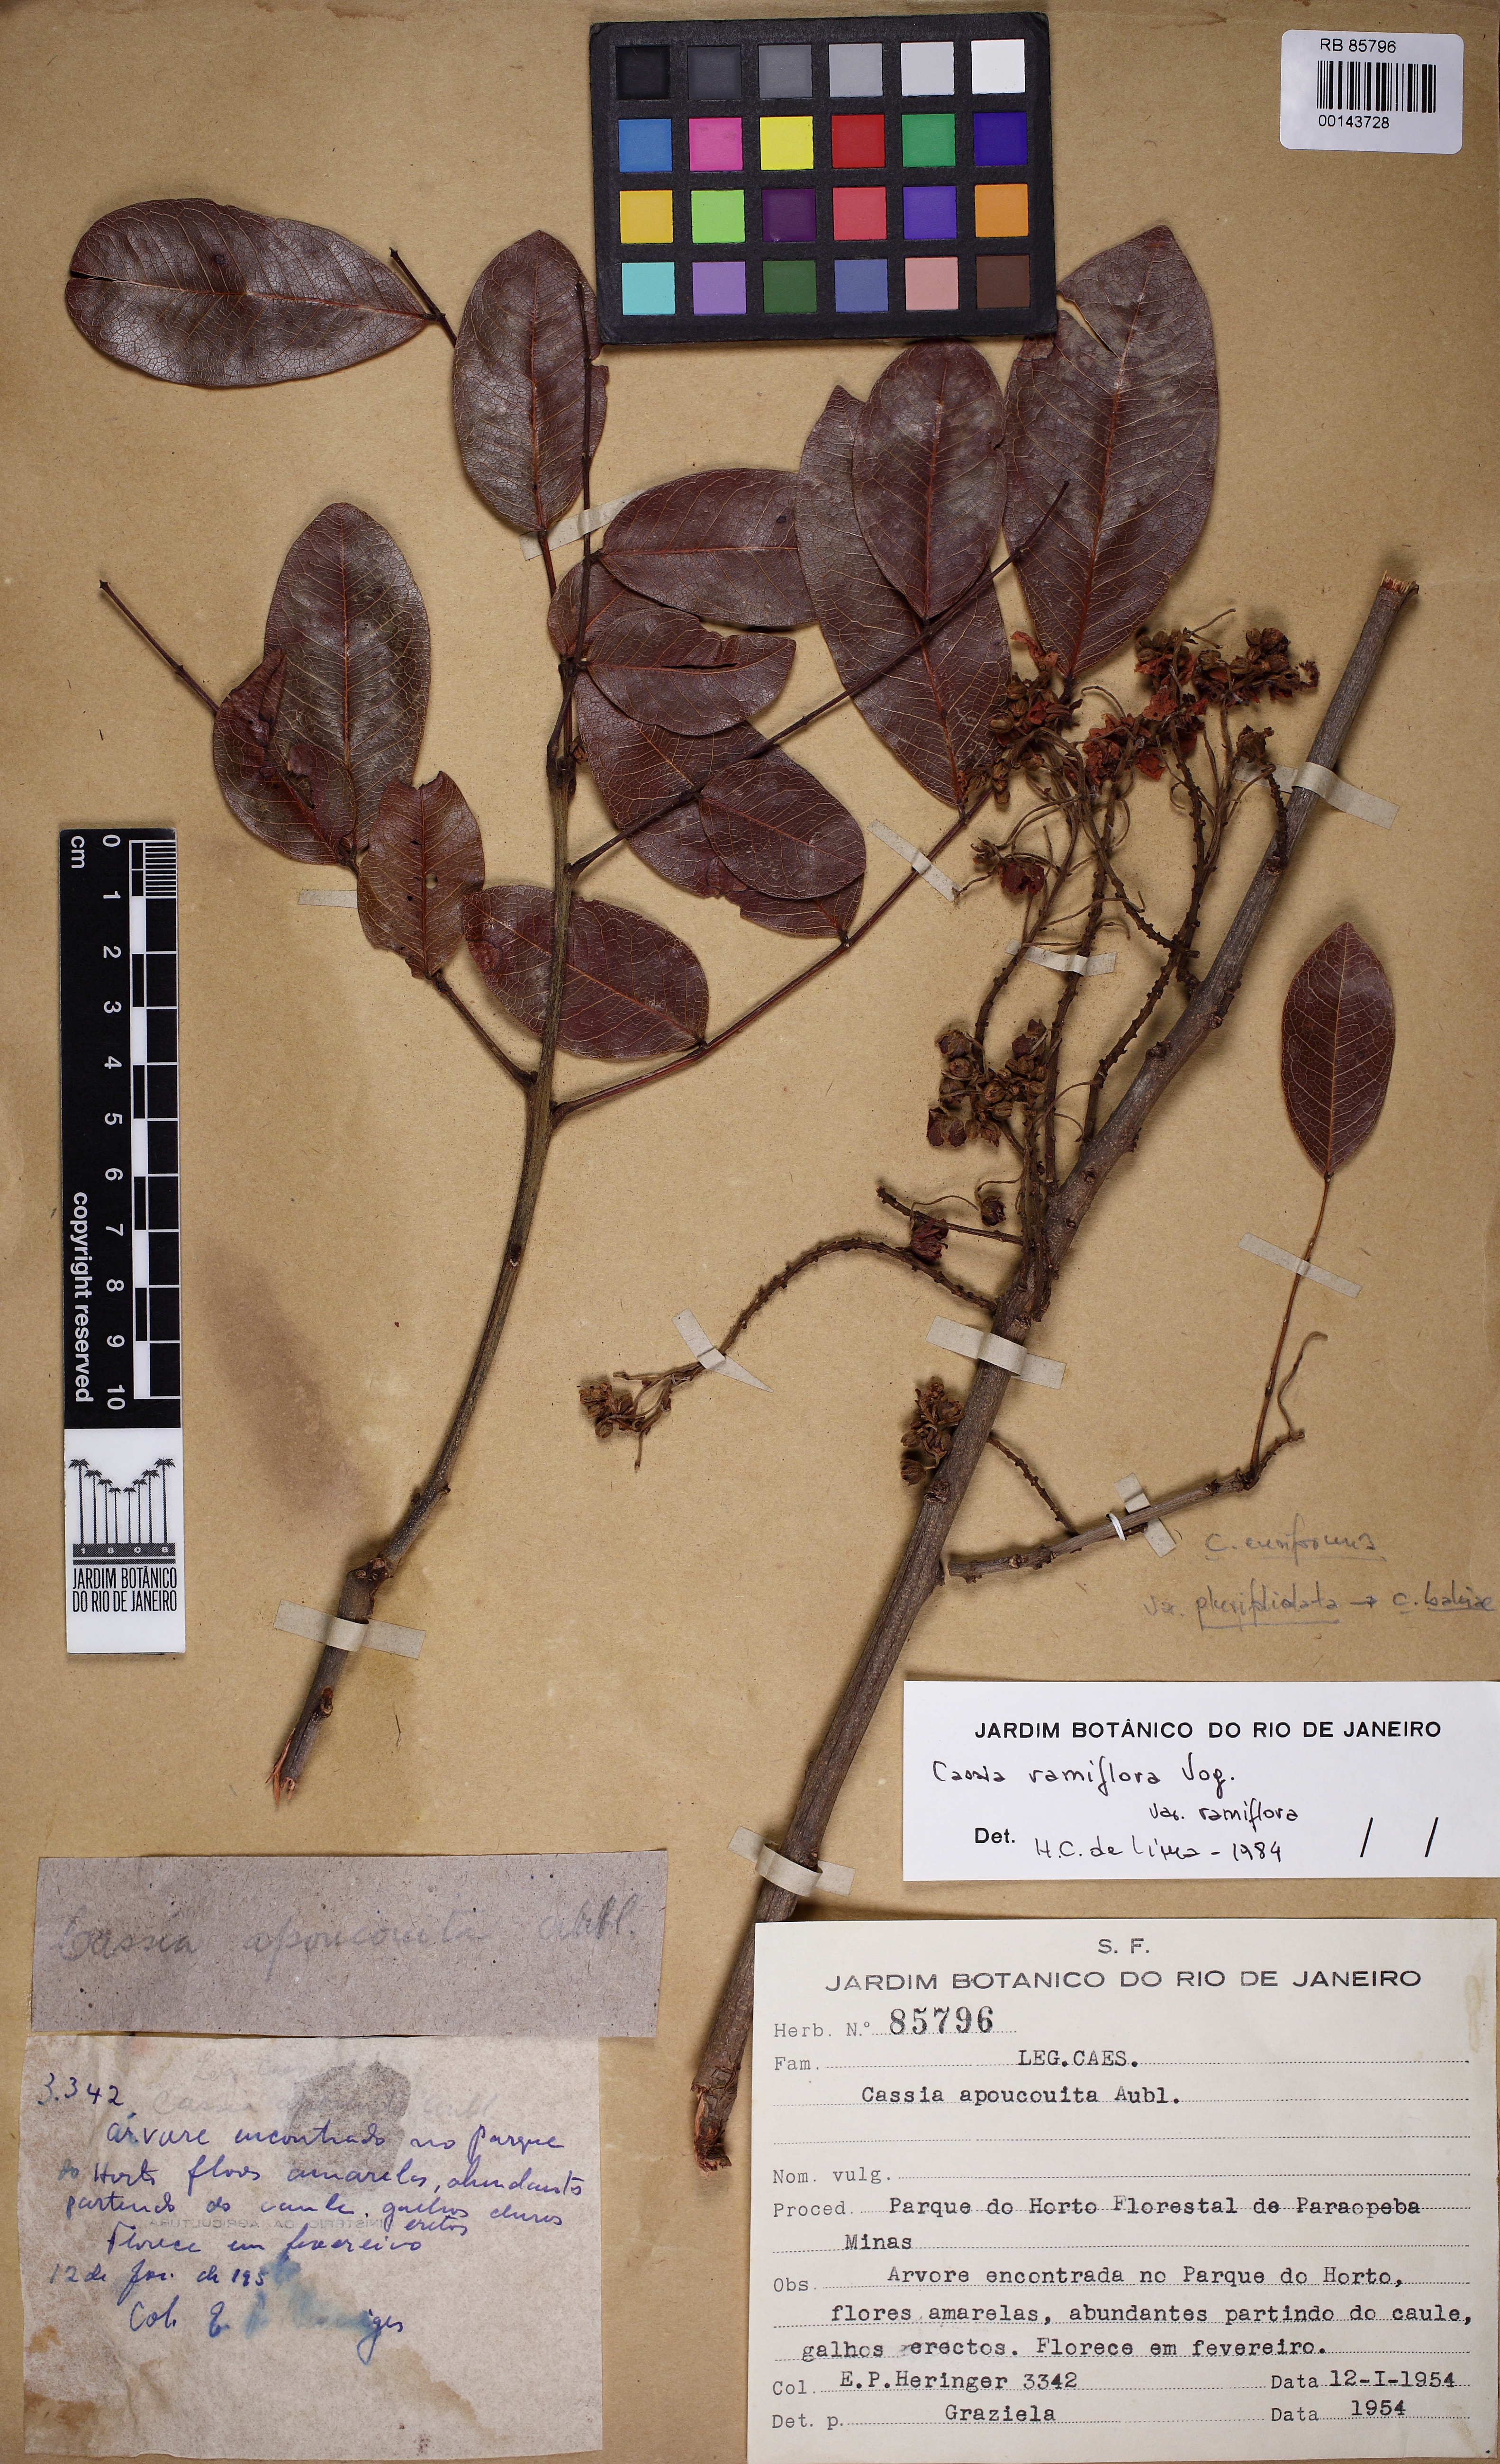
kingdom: Plantae
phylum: Tracheophyta
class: Magnoliopsida
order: Fabales
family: Fabaceae
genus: Chamaecrista
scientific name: Chamaecrista ensiformis
